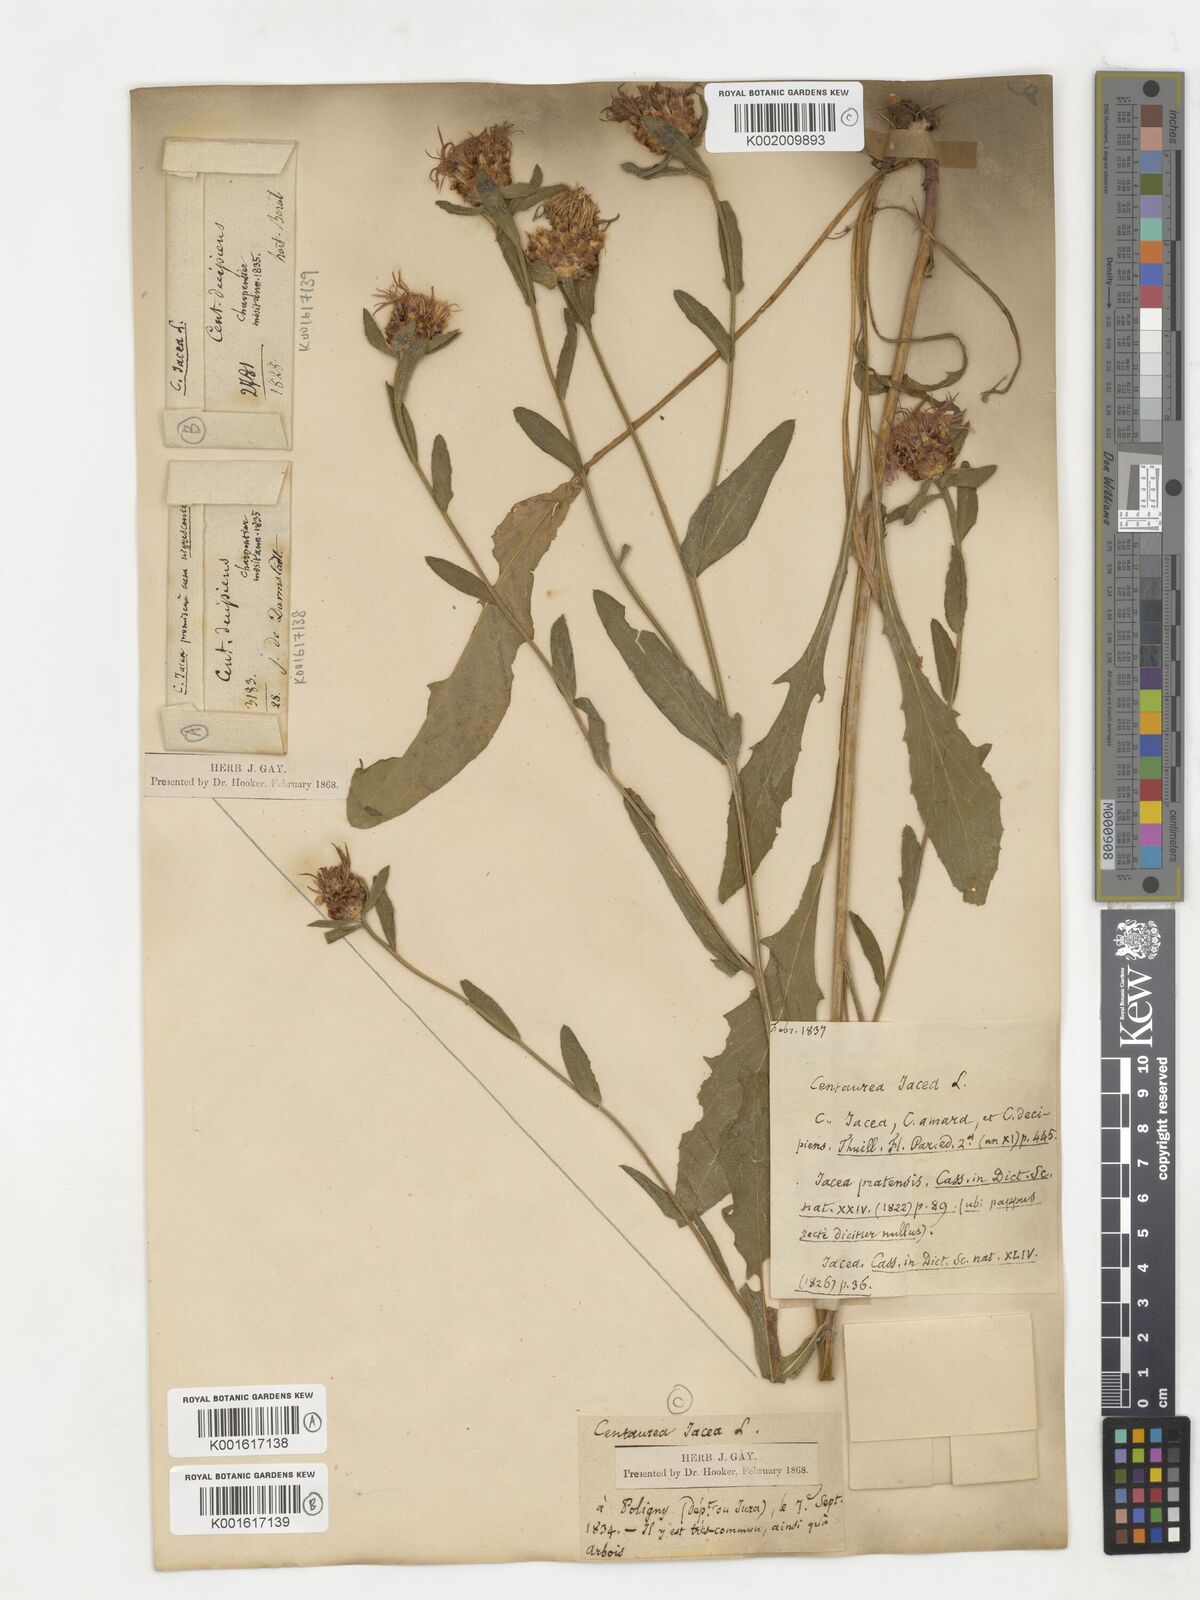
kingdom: Plantae
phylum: Tracheophyta
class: Magnoliopsida
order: Asterales
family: Asteraceae
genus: Centaurea
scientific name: Centaurea jacea
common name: Brown knapweed
